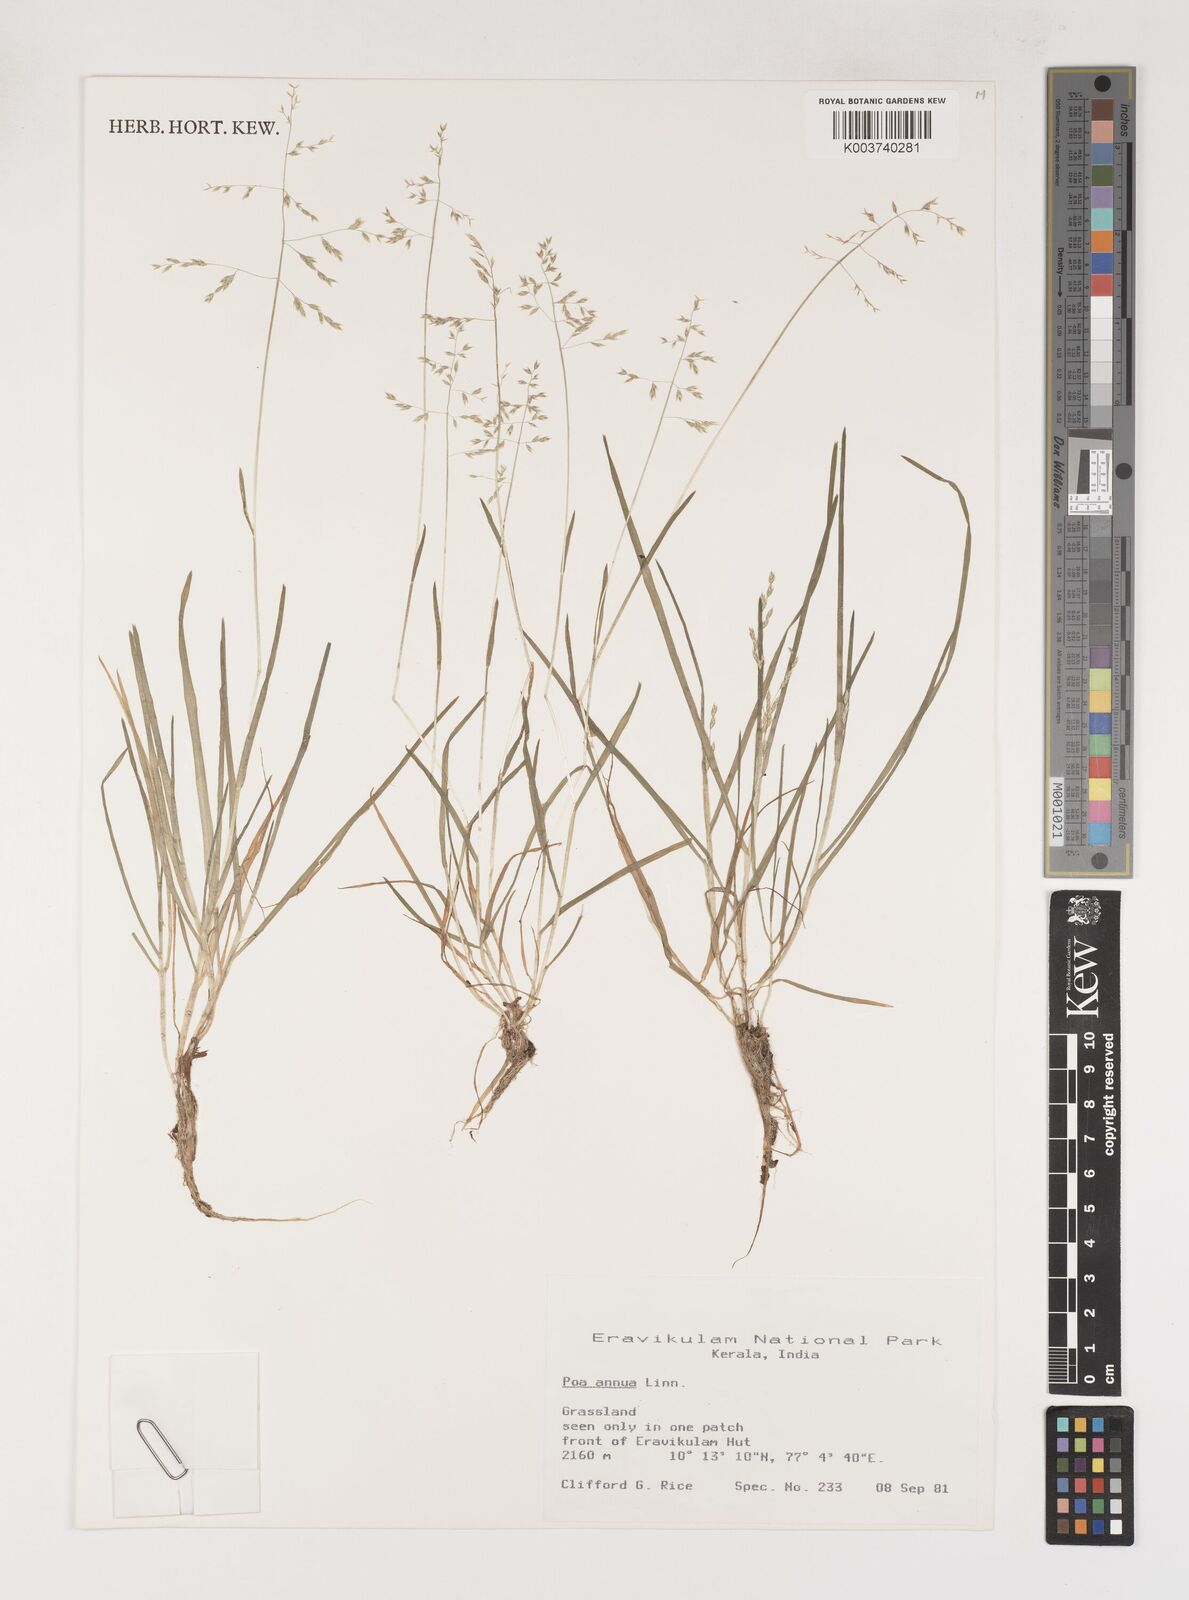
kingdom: Plantae
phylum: Tracheophyta
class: Liliopsida
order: Poales
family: Poaceae
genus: Poa
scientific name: Poa annua
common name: Annual bluegrass
